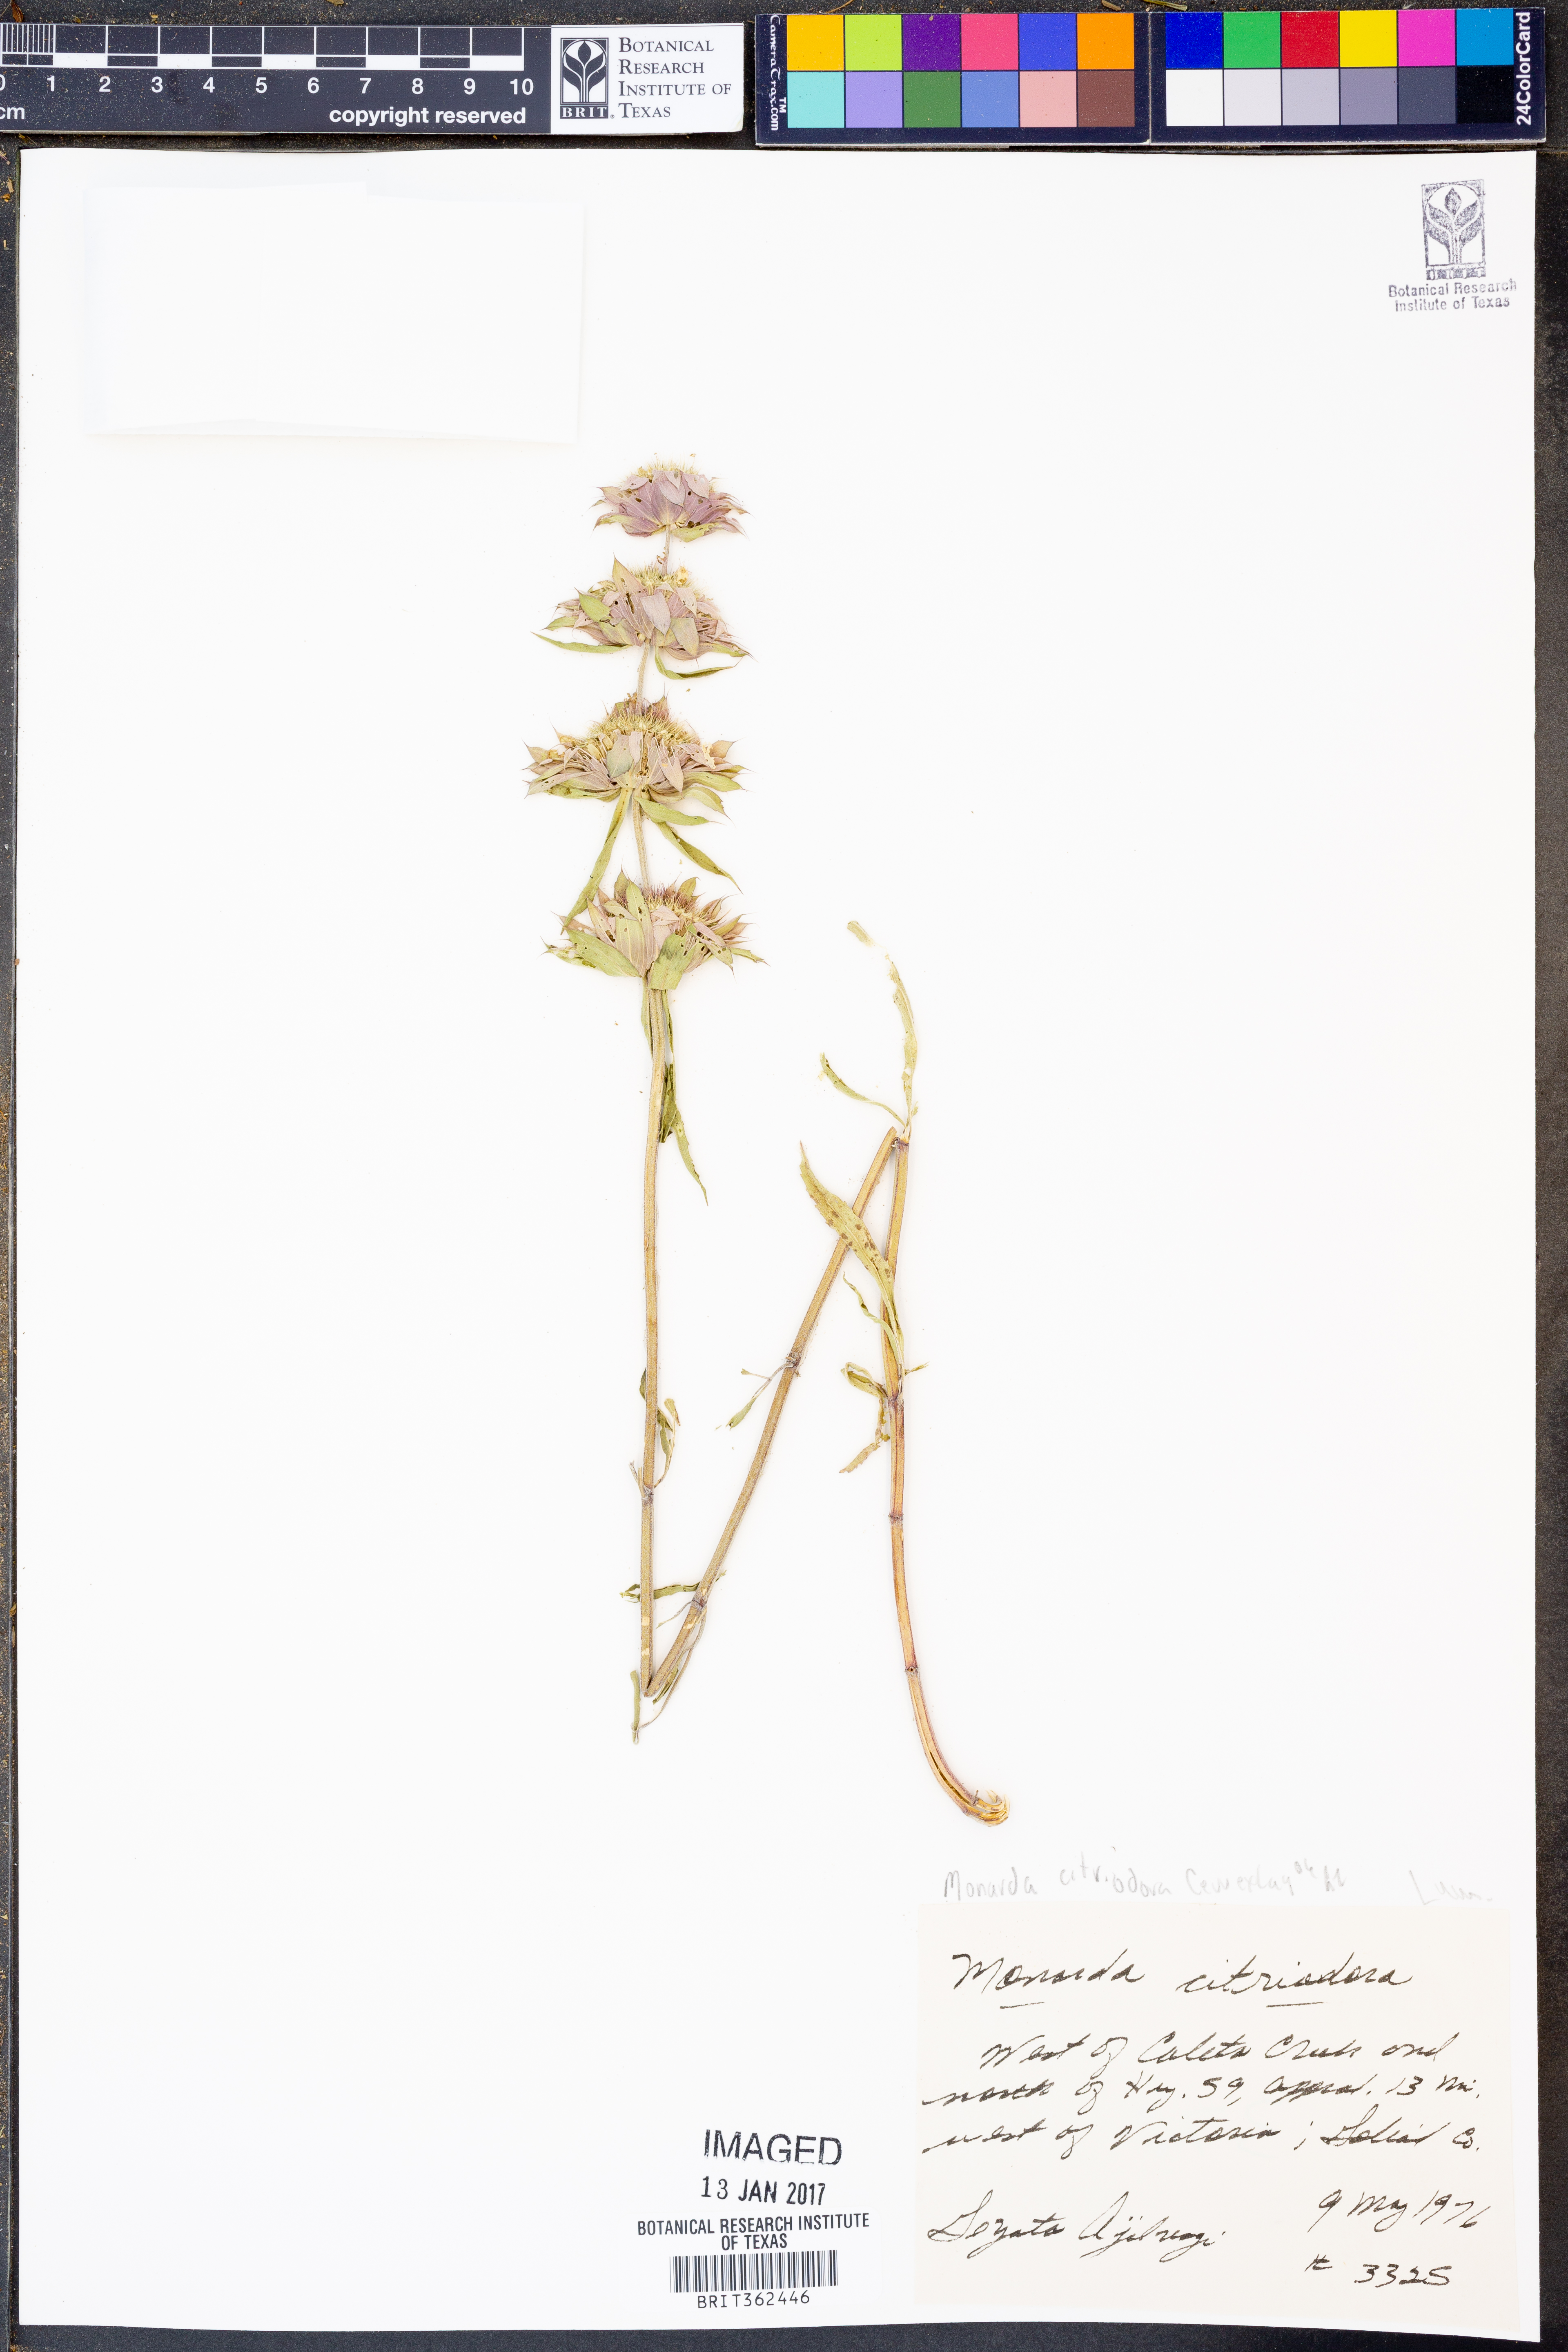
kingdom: Plantae
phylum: Tracheophyta
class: Magnoliopsida
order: Lamiales
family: Lamiaceae
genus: Monarda
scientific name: Monarda citriodora
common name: Lemon beebalm
